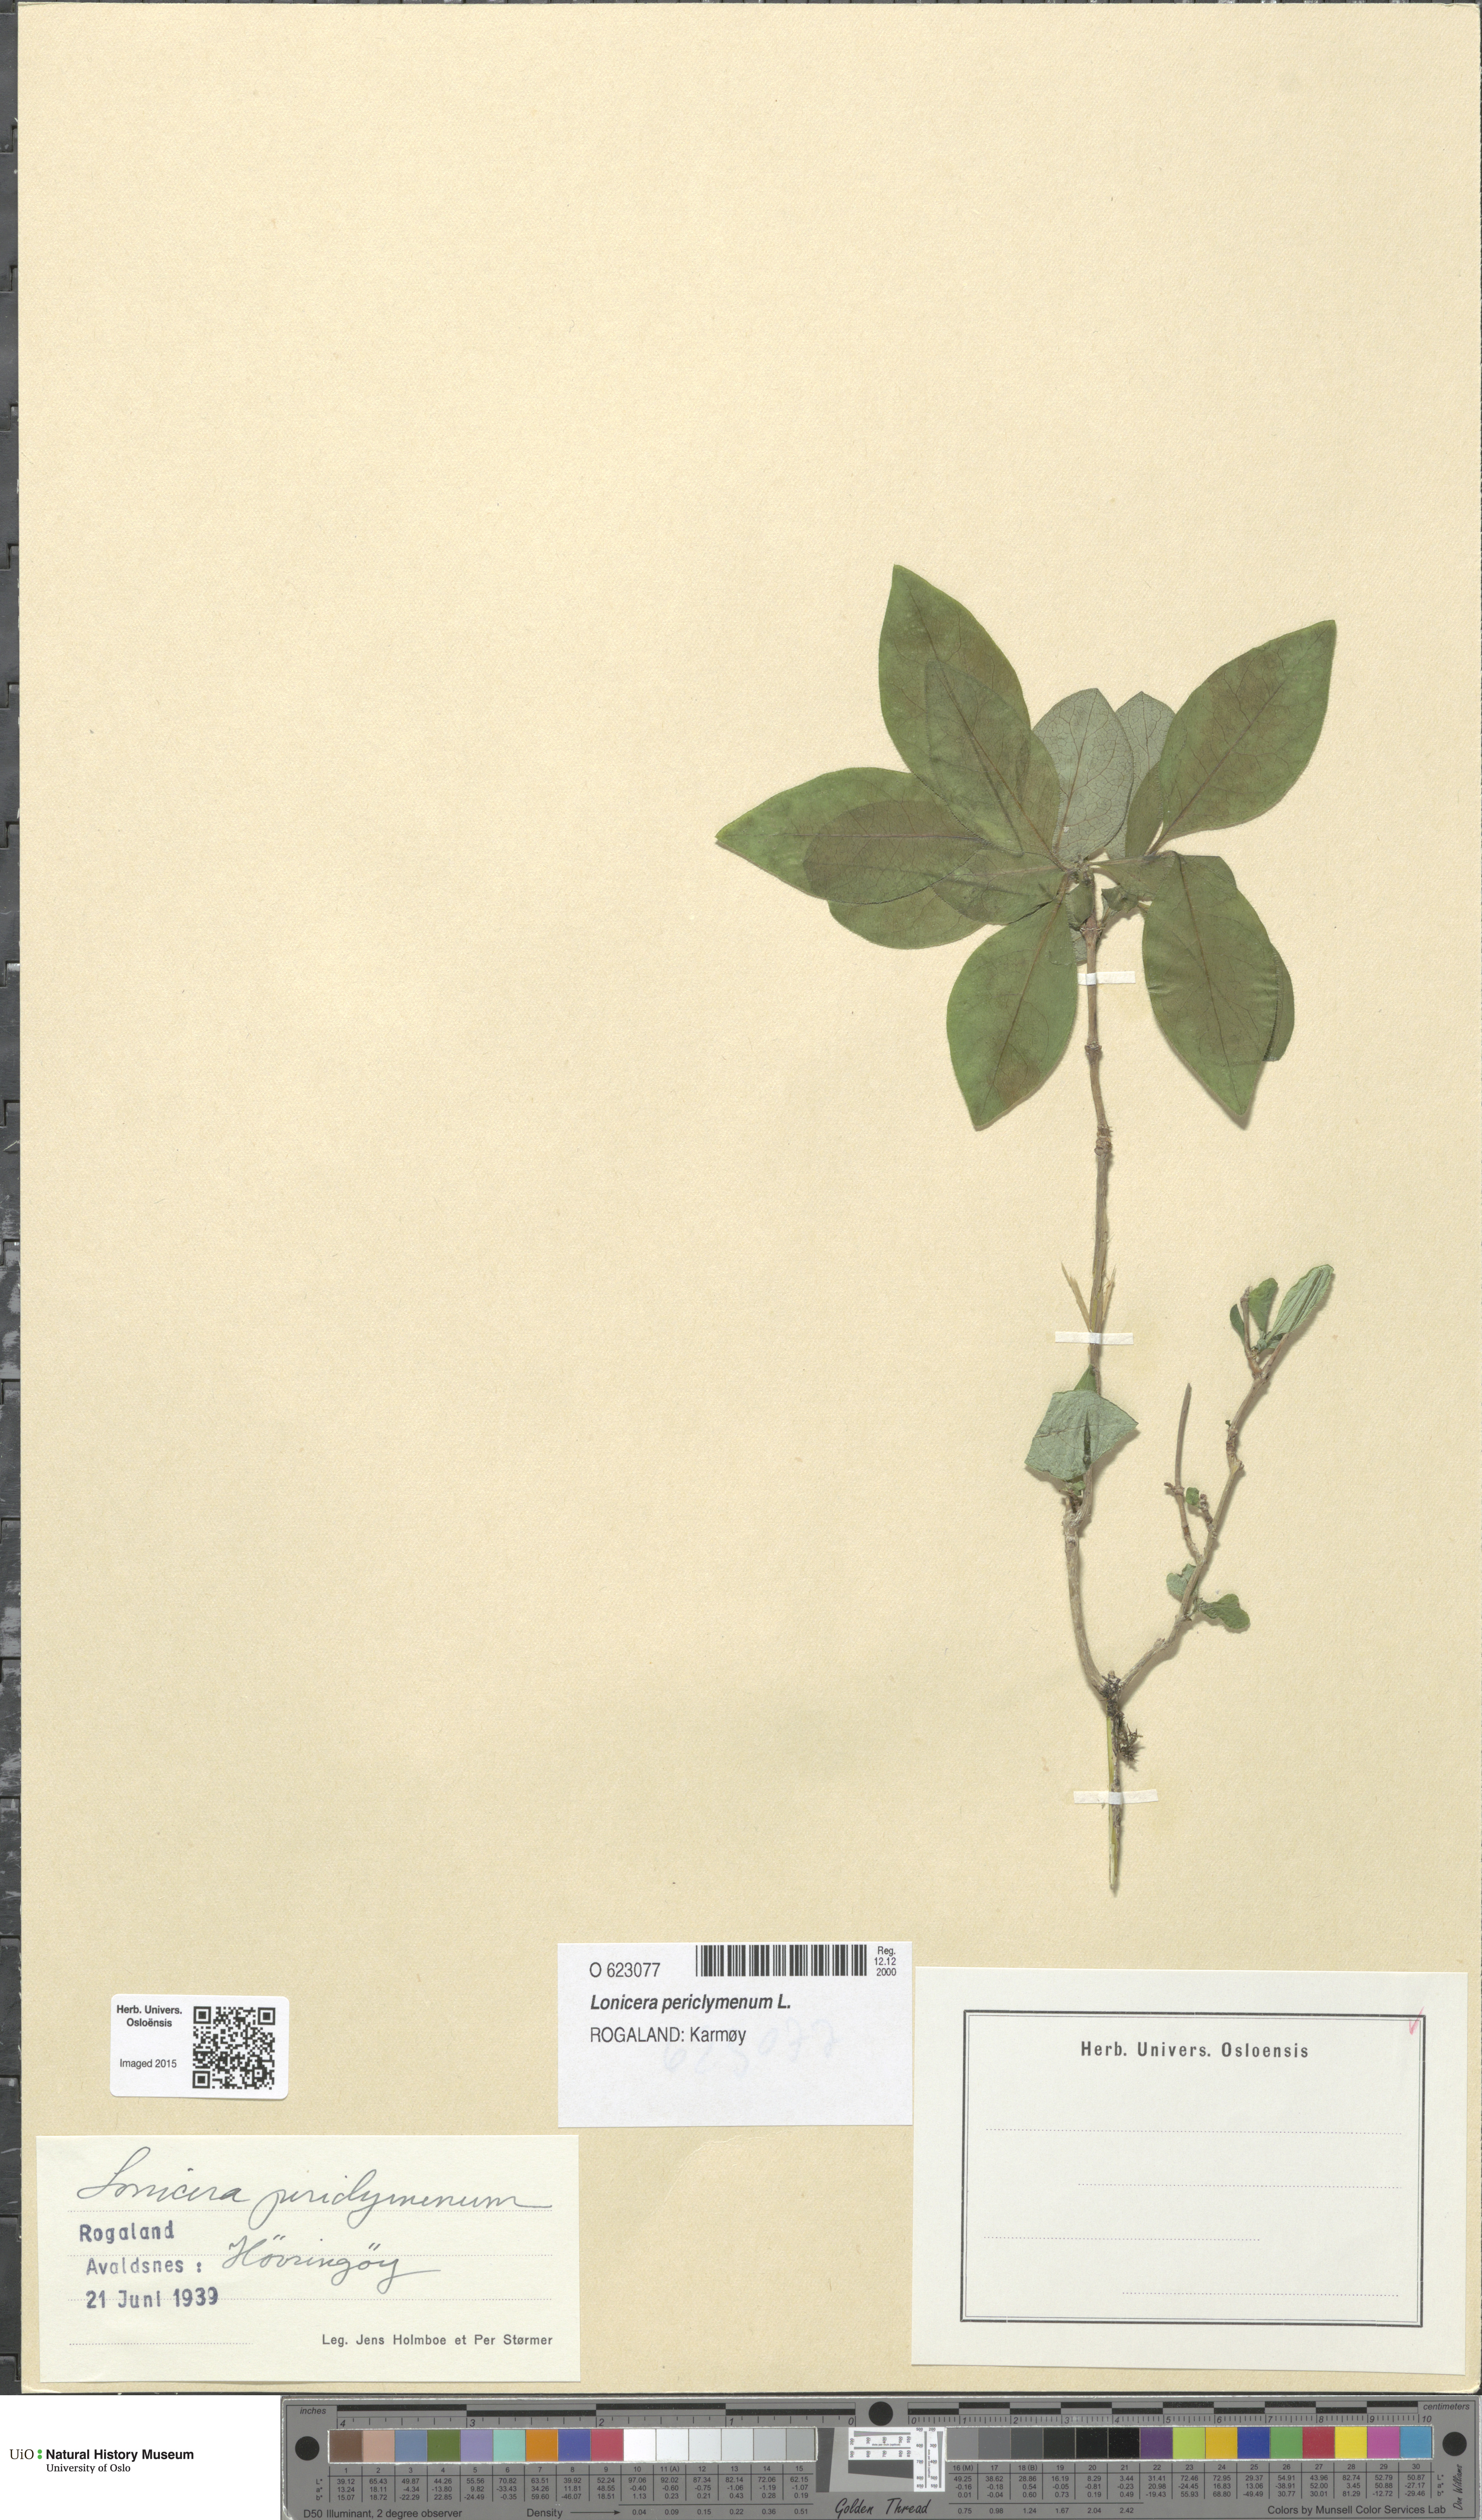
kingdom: Plantae
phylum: Tracheophyta
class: Magnoliopsida
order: Dipsacales
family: Caprifoliaceae
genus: Lonicera
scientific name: Lonicera periclymenum
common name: European honeysuckle
